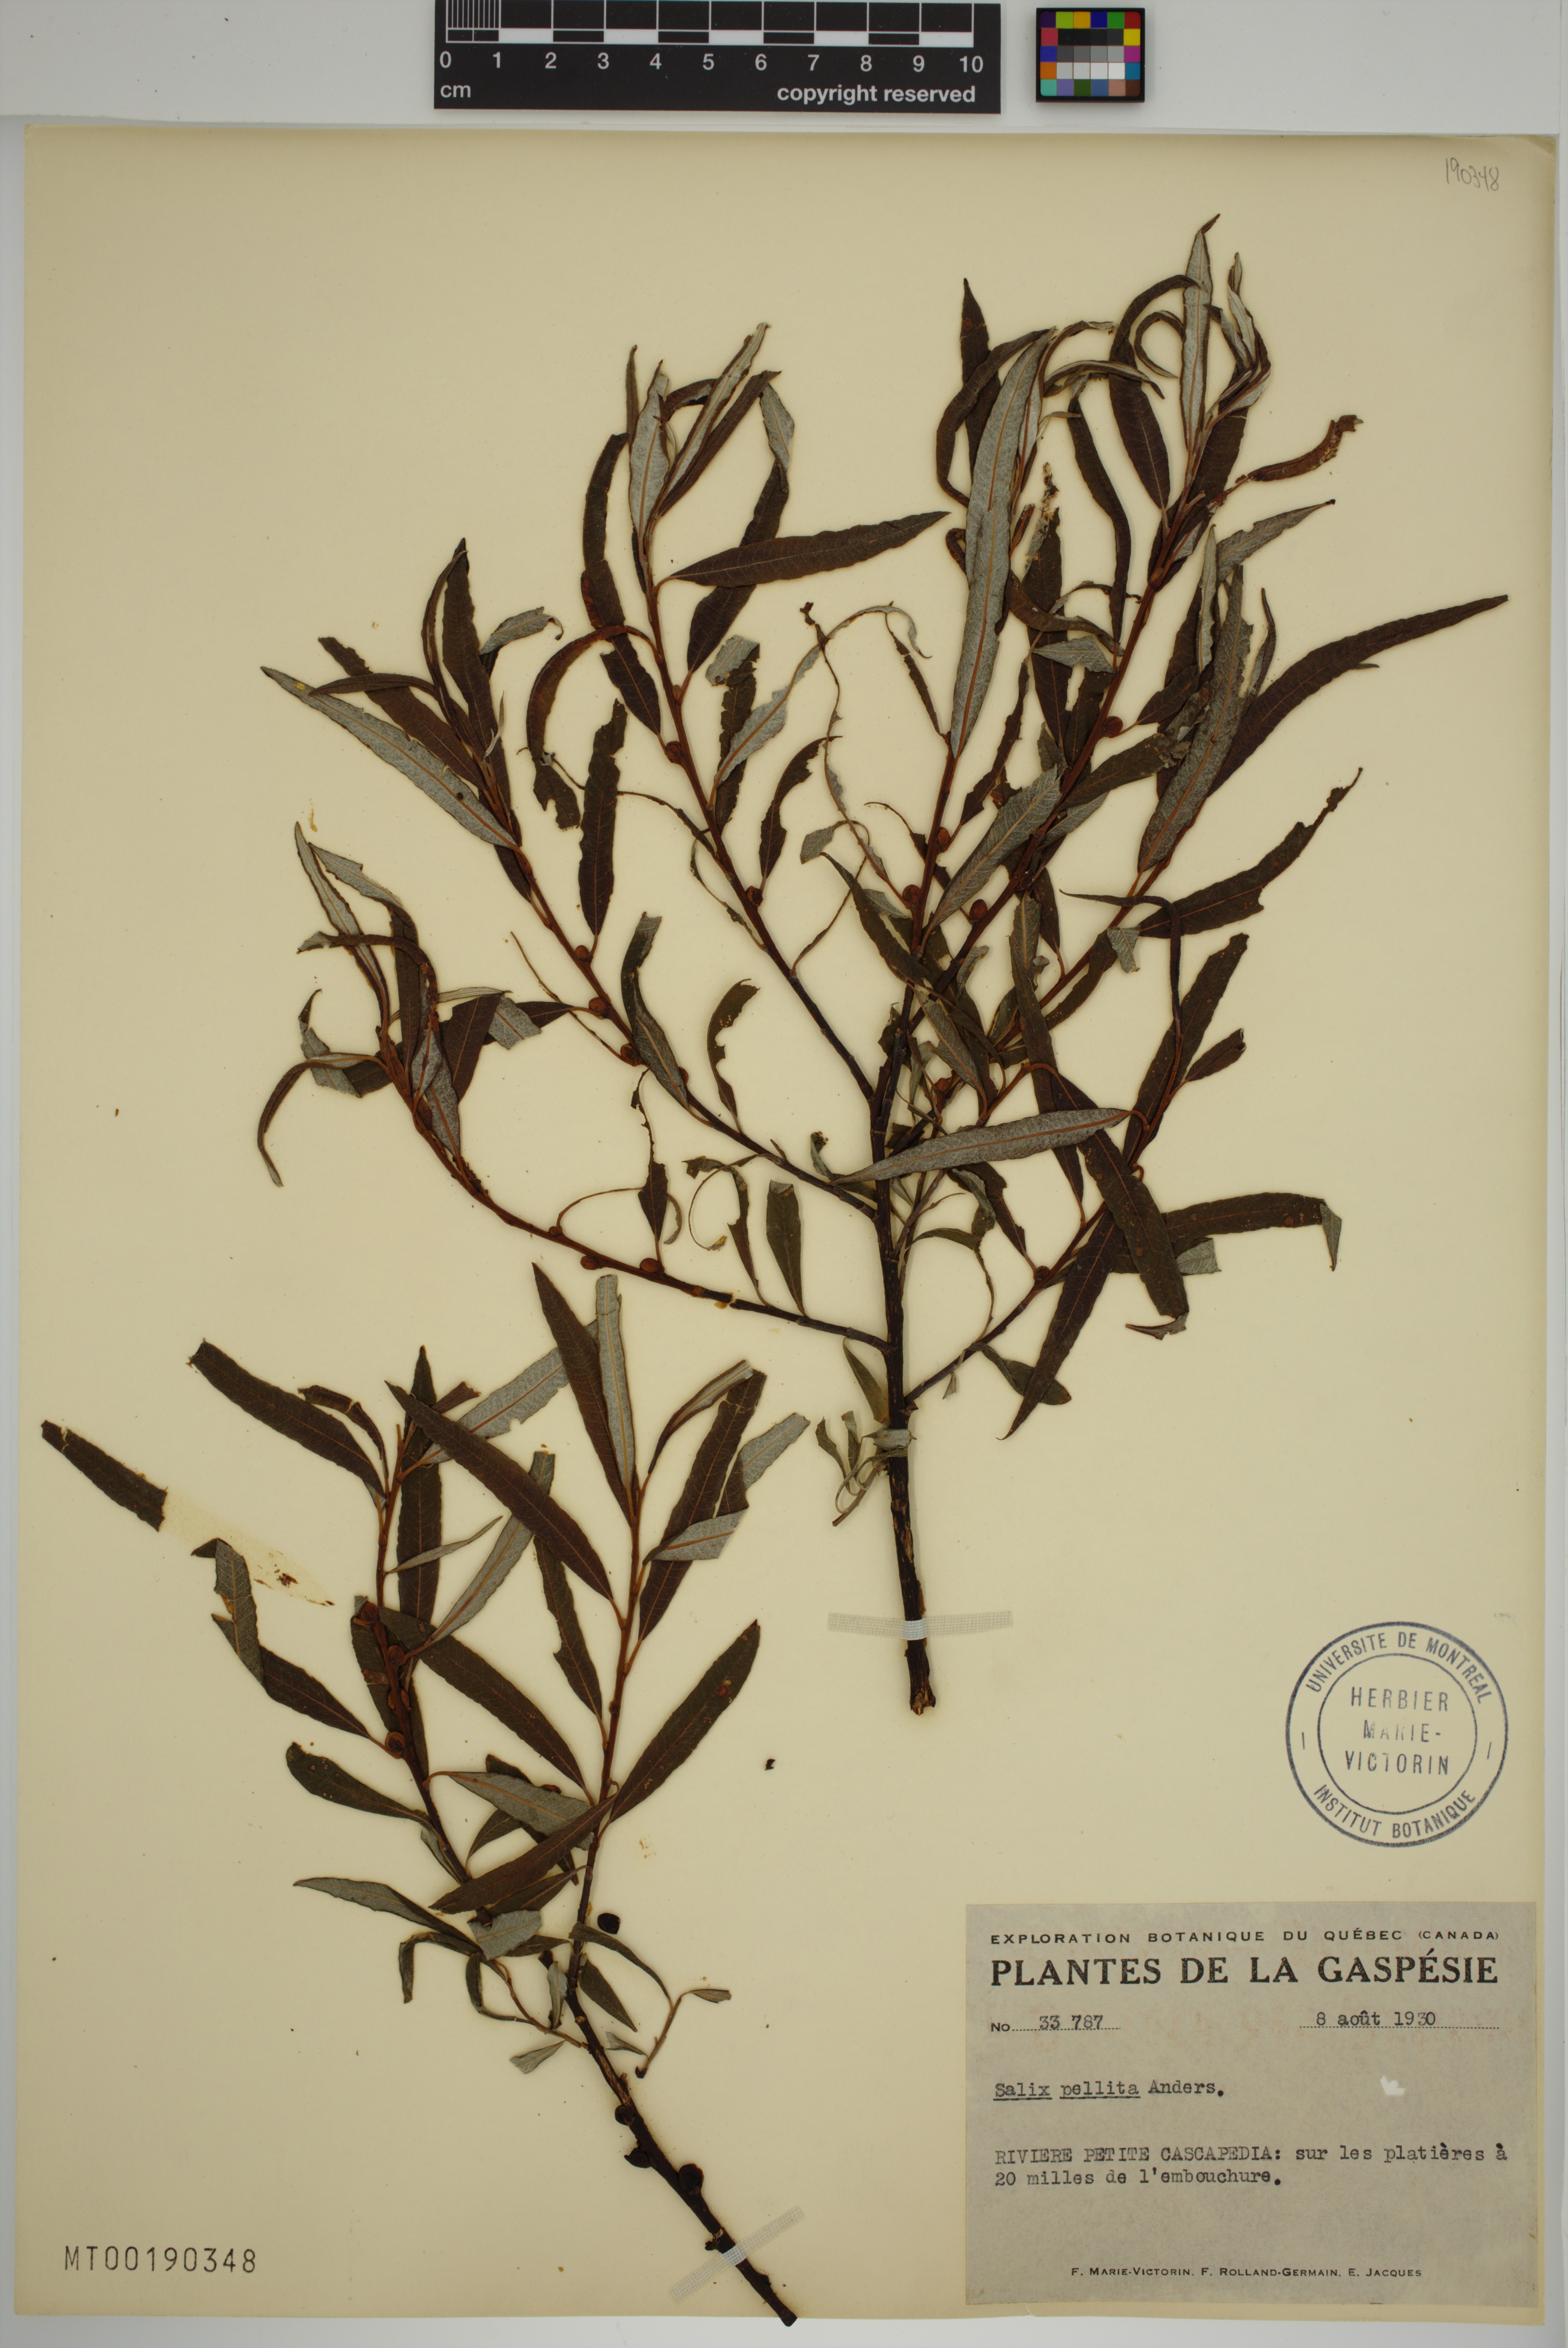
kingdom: Plantae
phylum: Tracheophyta
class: Magnoliopsida
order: Malpighiales
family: Salicaceae
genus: Salix
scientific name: Salix pellita
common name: Satiny willow
